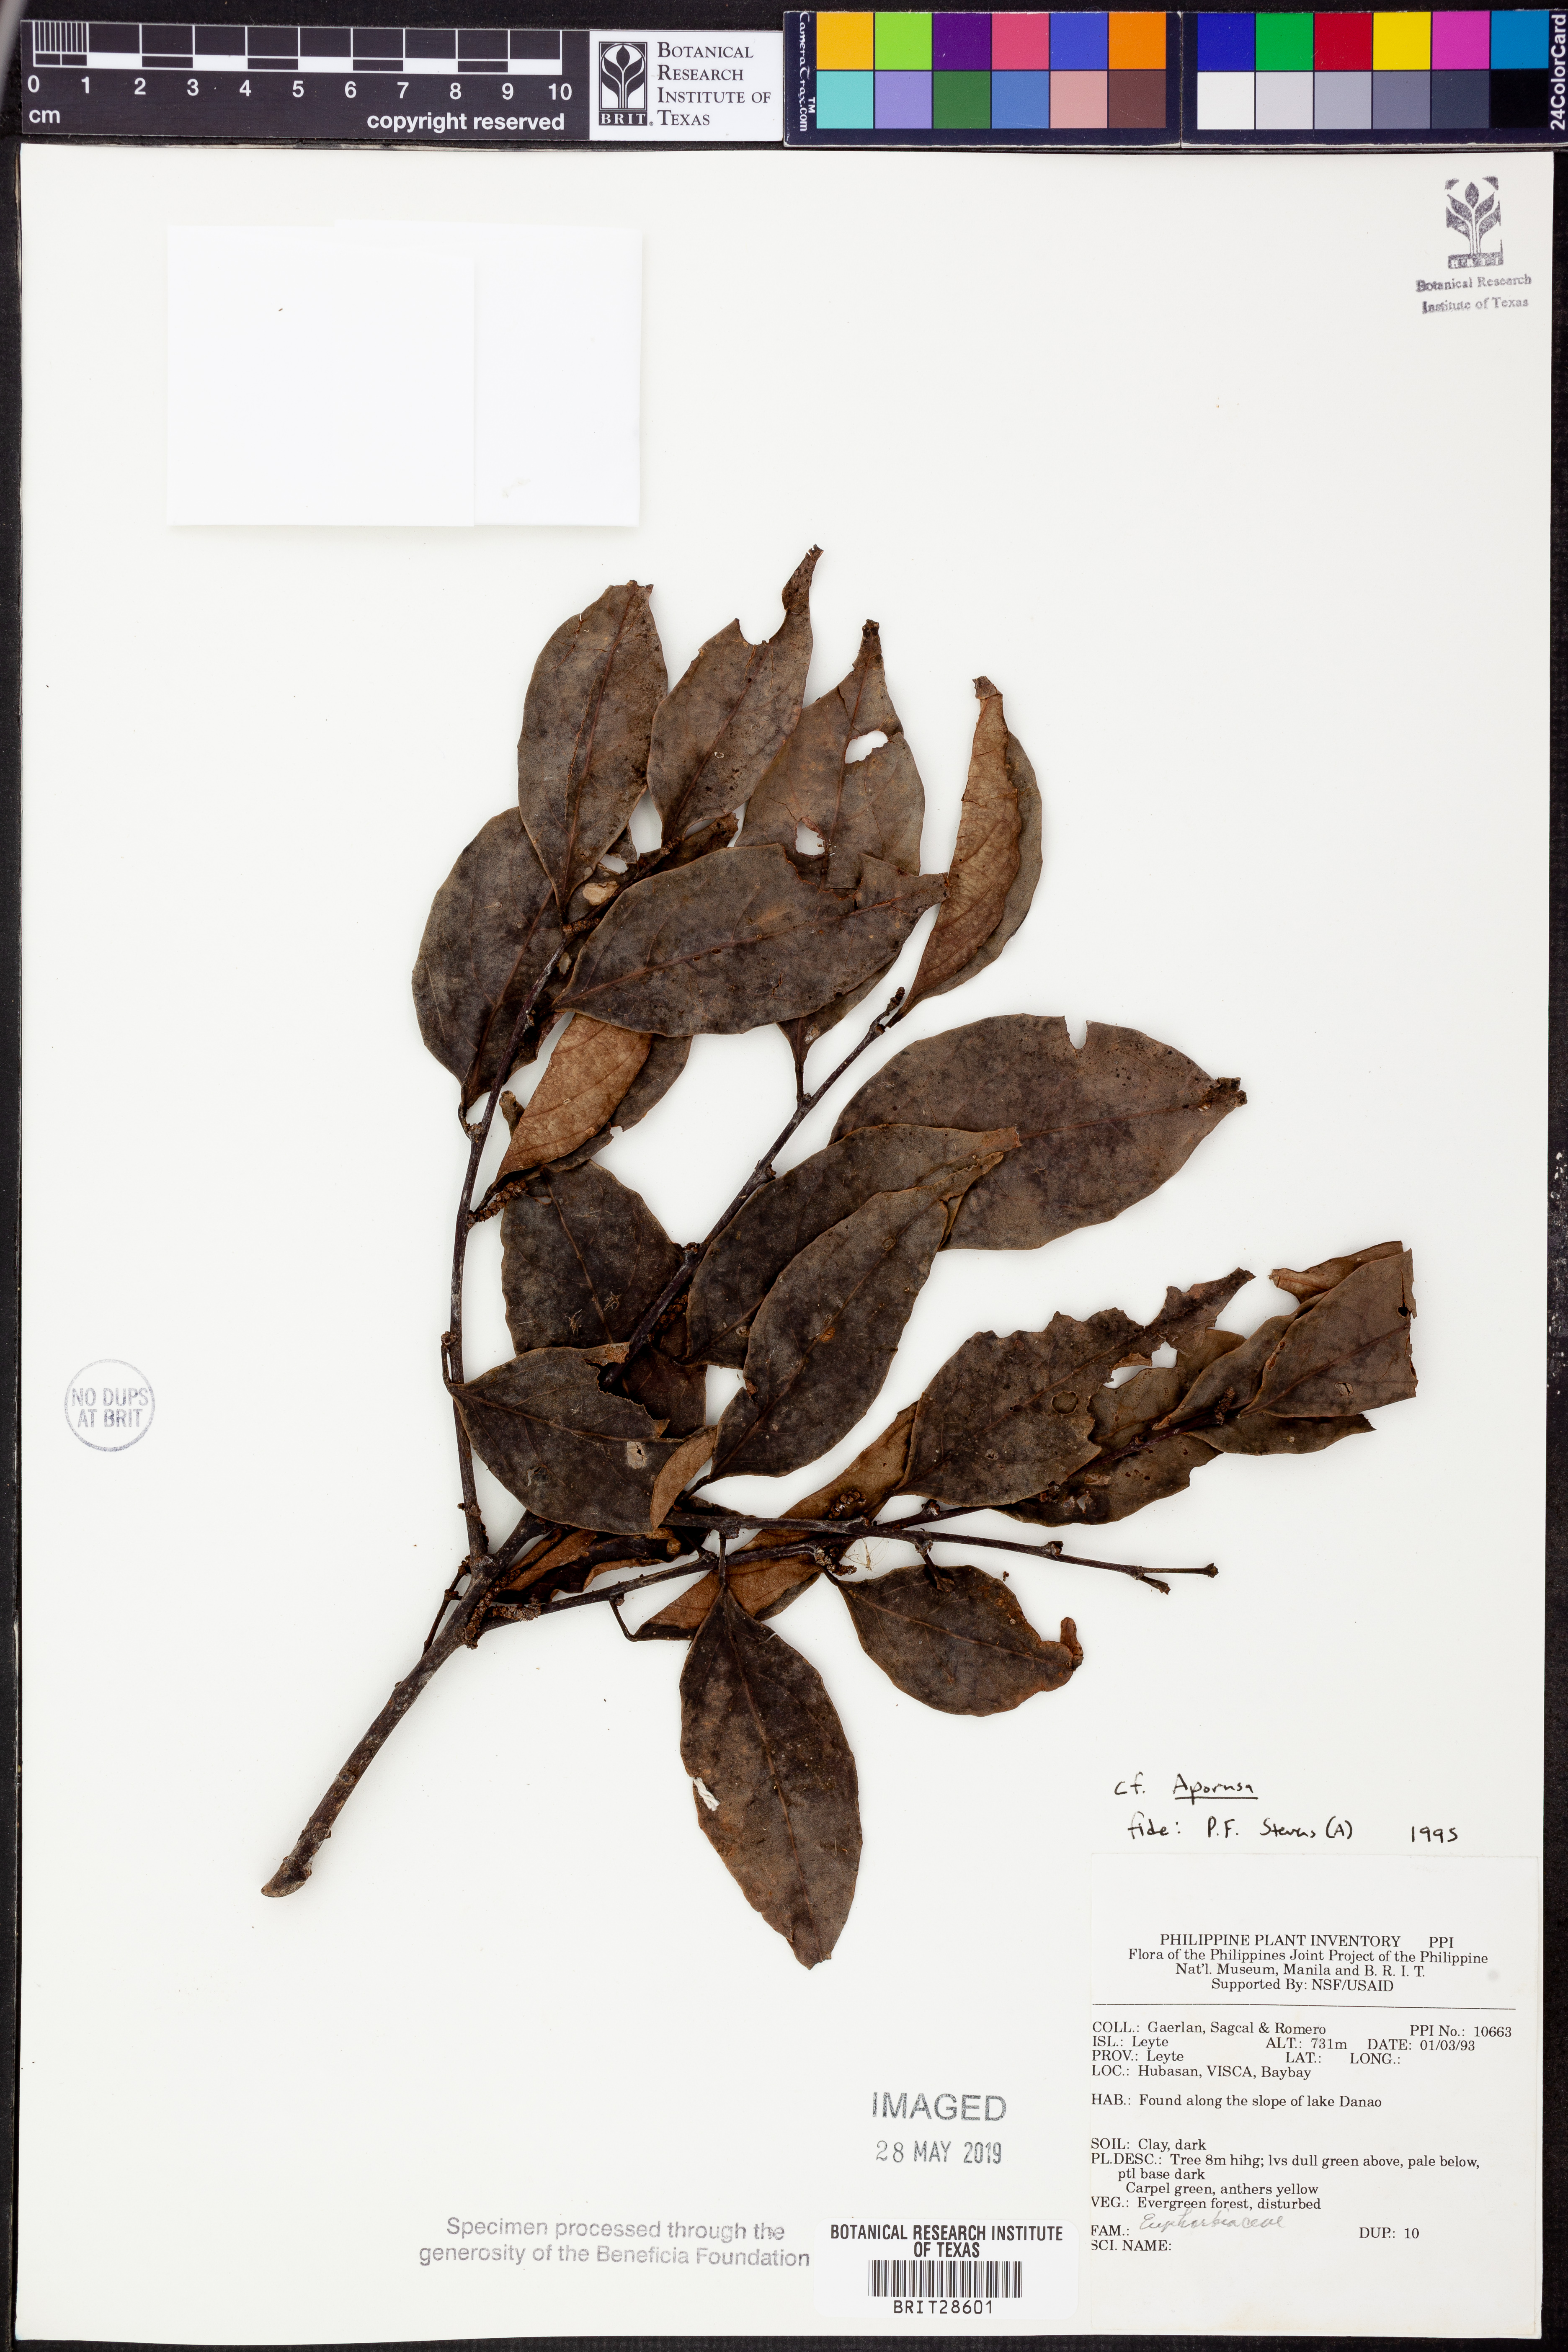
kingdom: Plantae
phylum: Tracheophyta
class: Magnoliopsida
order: Malpighiales
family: Phyllanthaceae
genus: Aporosa
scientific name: Aporosa
